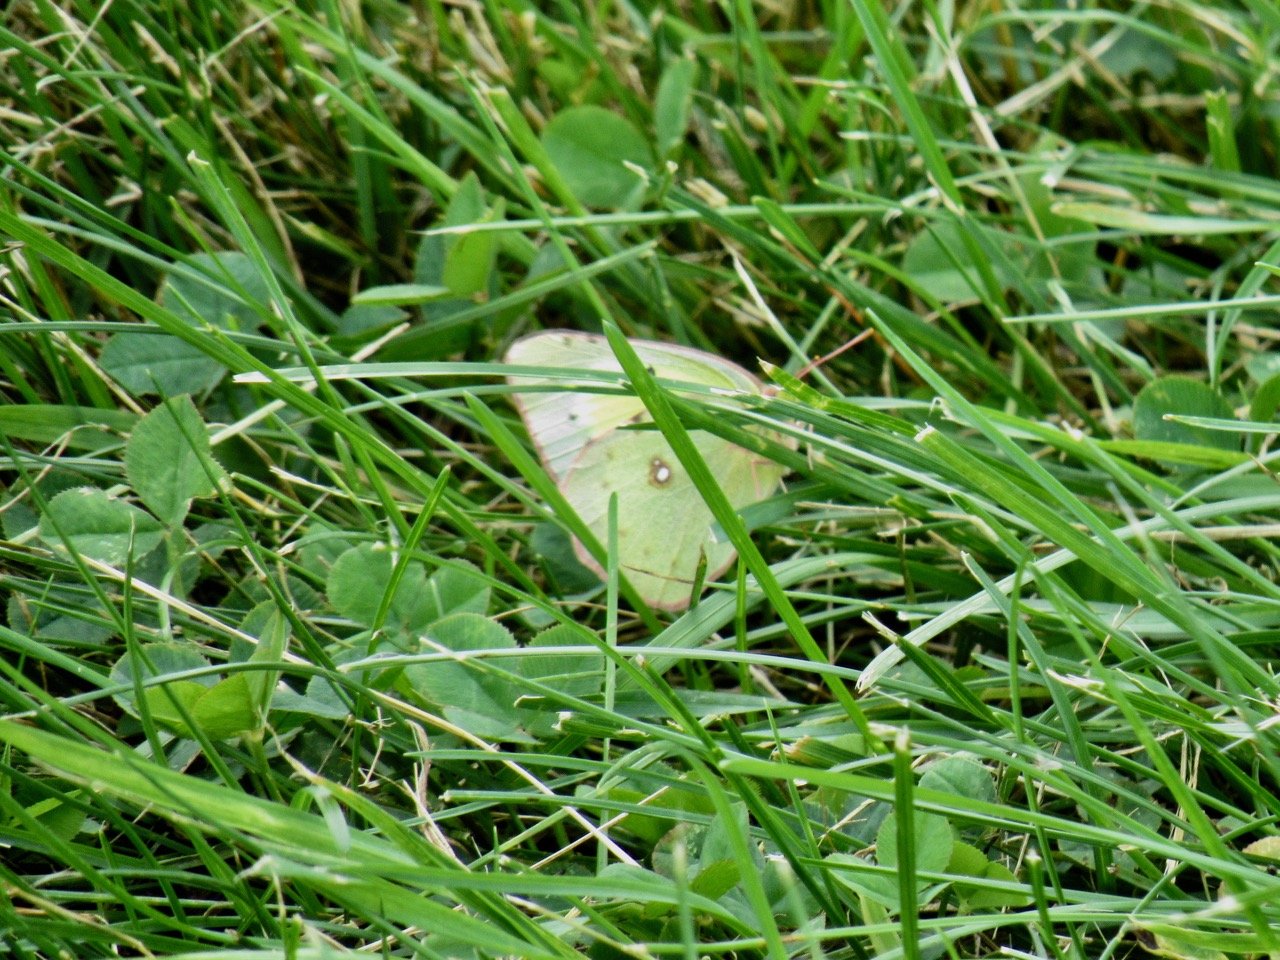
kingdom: Animalia
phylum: Arthropoda
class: Insecta
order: Lepidoptera
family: Pieridae
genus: Colias
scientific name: Colias philodice
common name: Clouded Sulphur
